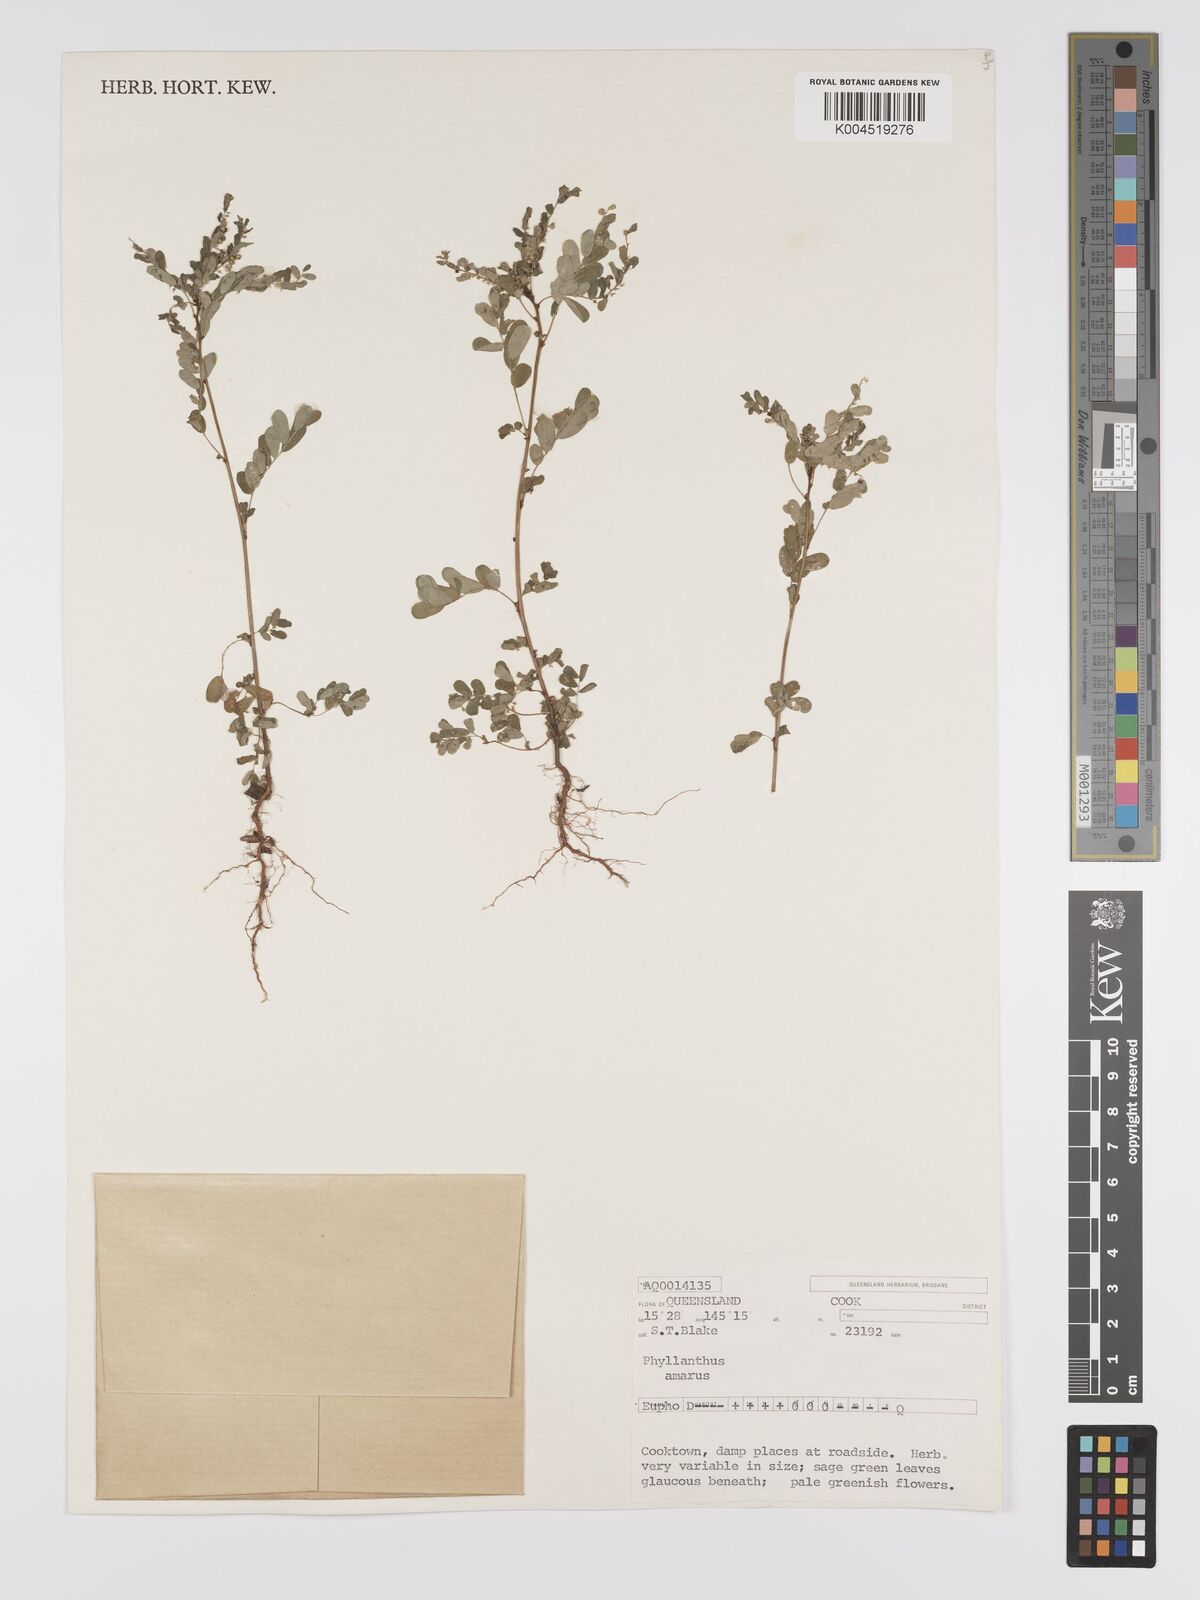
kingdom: Plantae
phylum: Tracheophyta
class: Magnoliopsida
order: Malpighiales
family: Phyllanthaceae
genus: Phyllanthus
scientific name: Phyllanthus amarus
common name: Carry me seed
